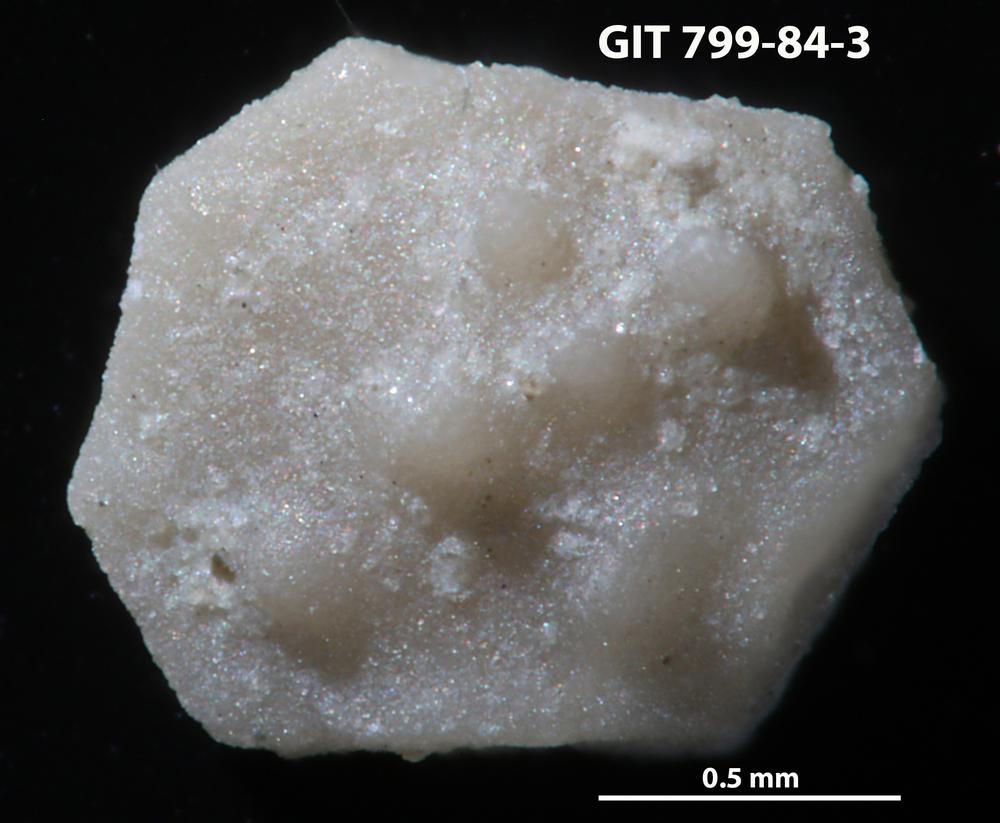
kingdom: Animalia
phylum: Echinodermata
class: Echinoidea
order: Bothriocidaroida
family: Bothriocidaridae
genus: Bothriocidaris
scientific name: Bothriocidaris
